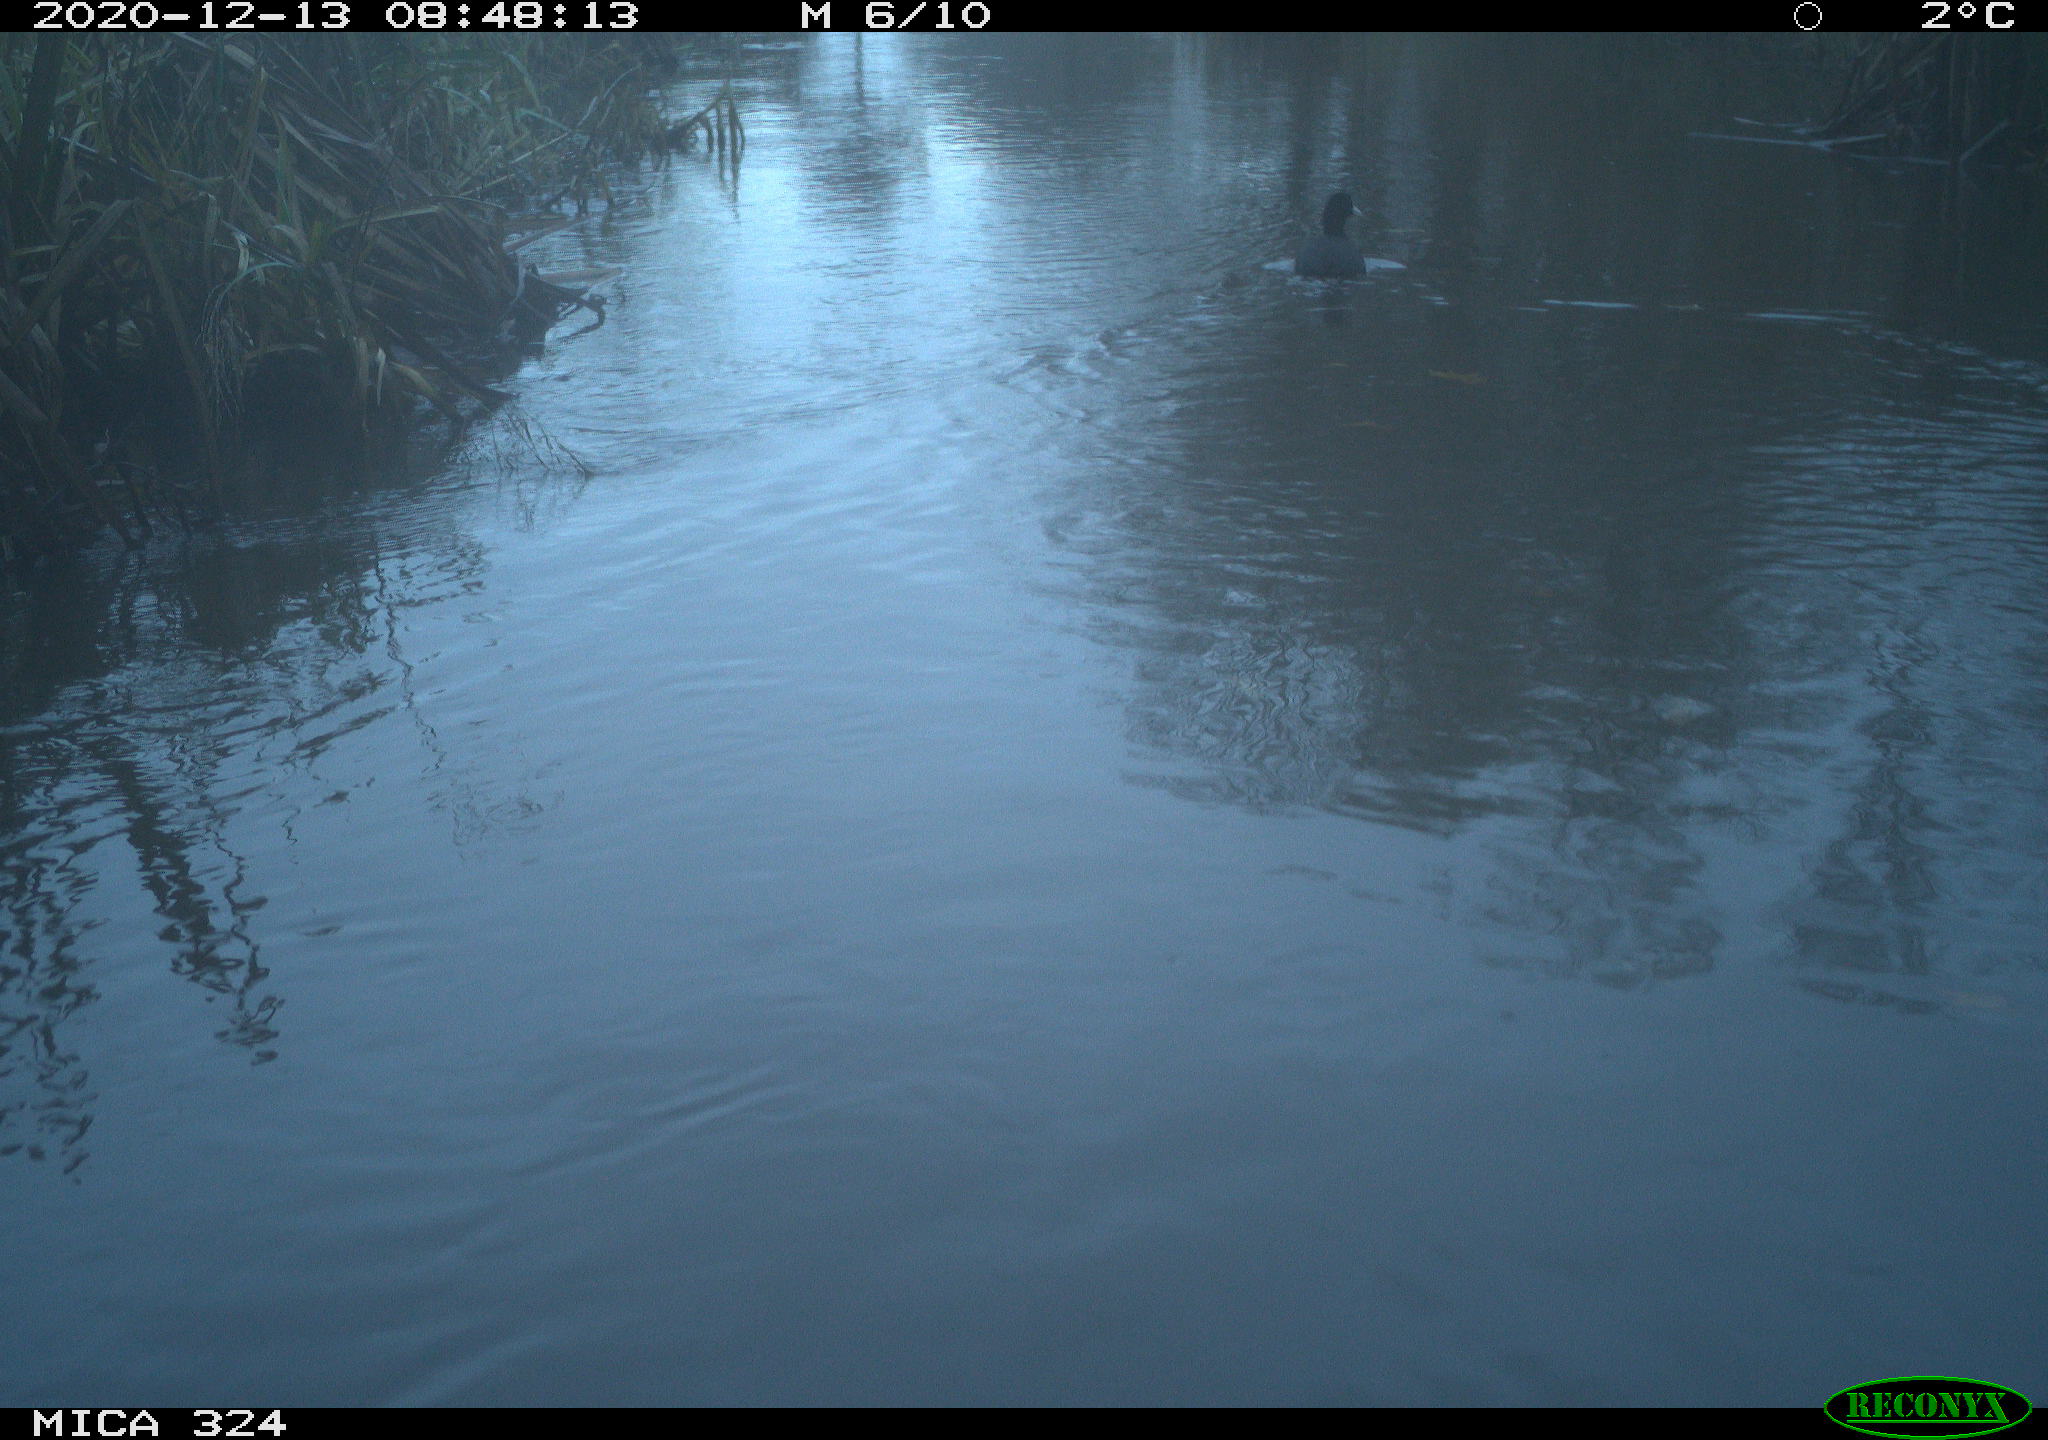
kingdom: Animalia
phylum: Chordata
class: Aves
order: Gruiformes
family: Rallidae
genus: Fulica
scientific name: Fulica atra
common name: Eurasian coot
